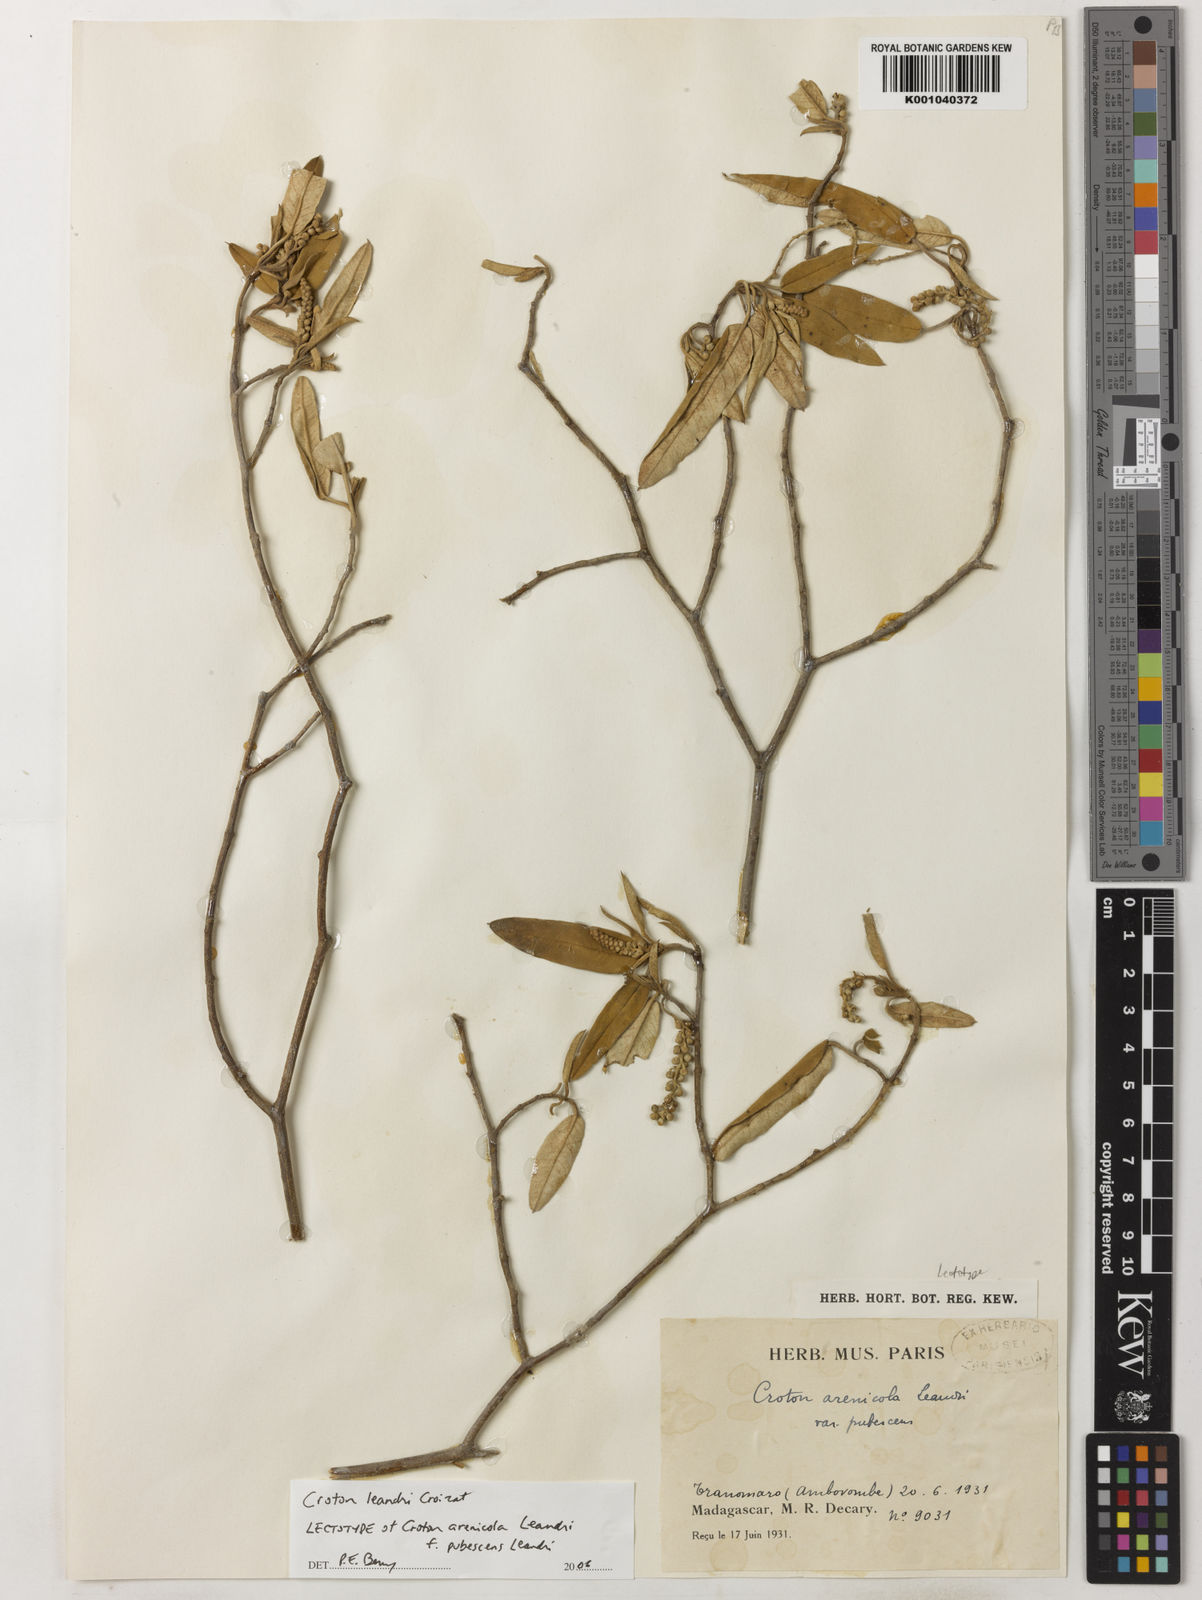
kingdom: Plantae
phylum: Tracheophyta
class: Magnoliopsida
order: Malpighiales
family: Euphorbiaceae
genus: Croton
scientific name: Croton chlaenacicomes
